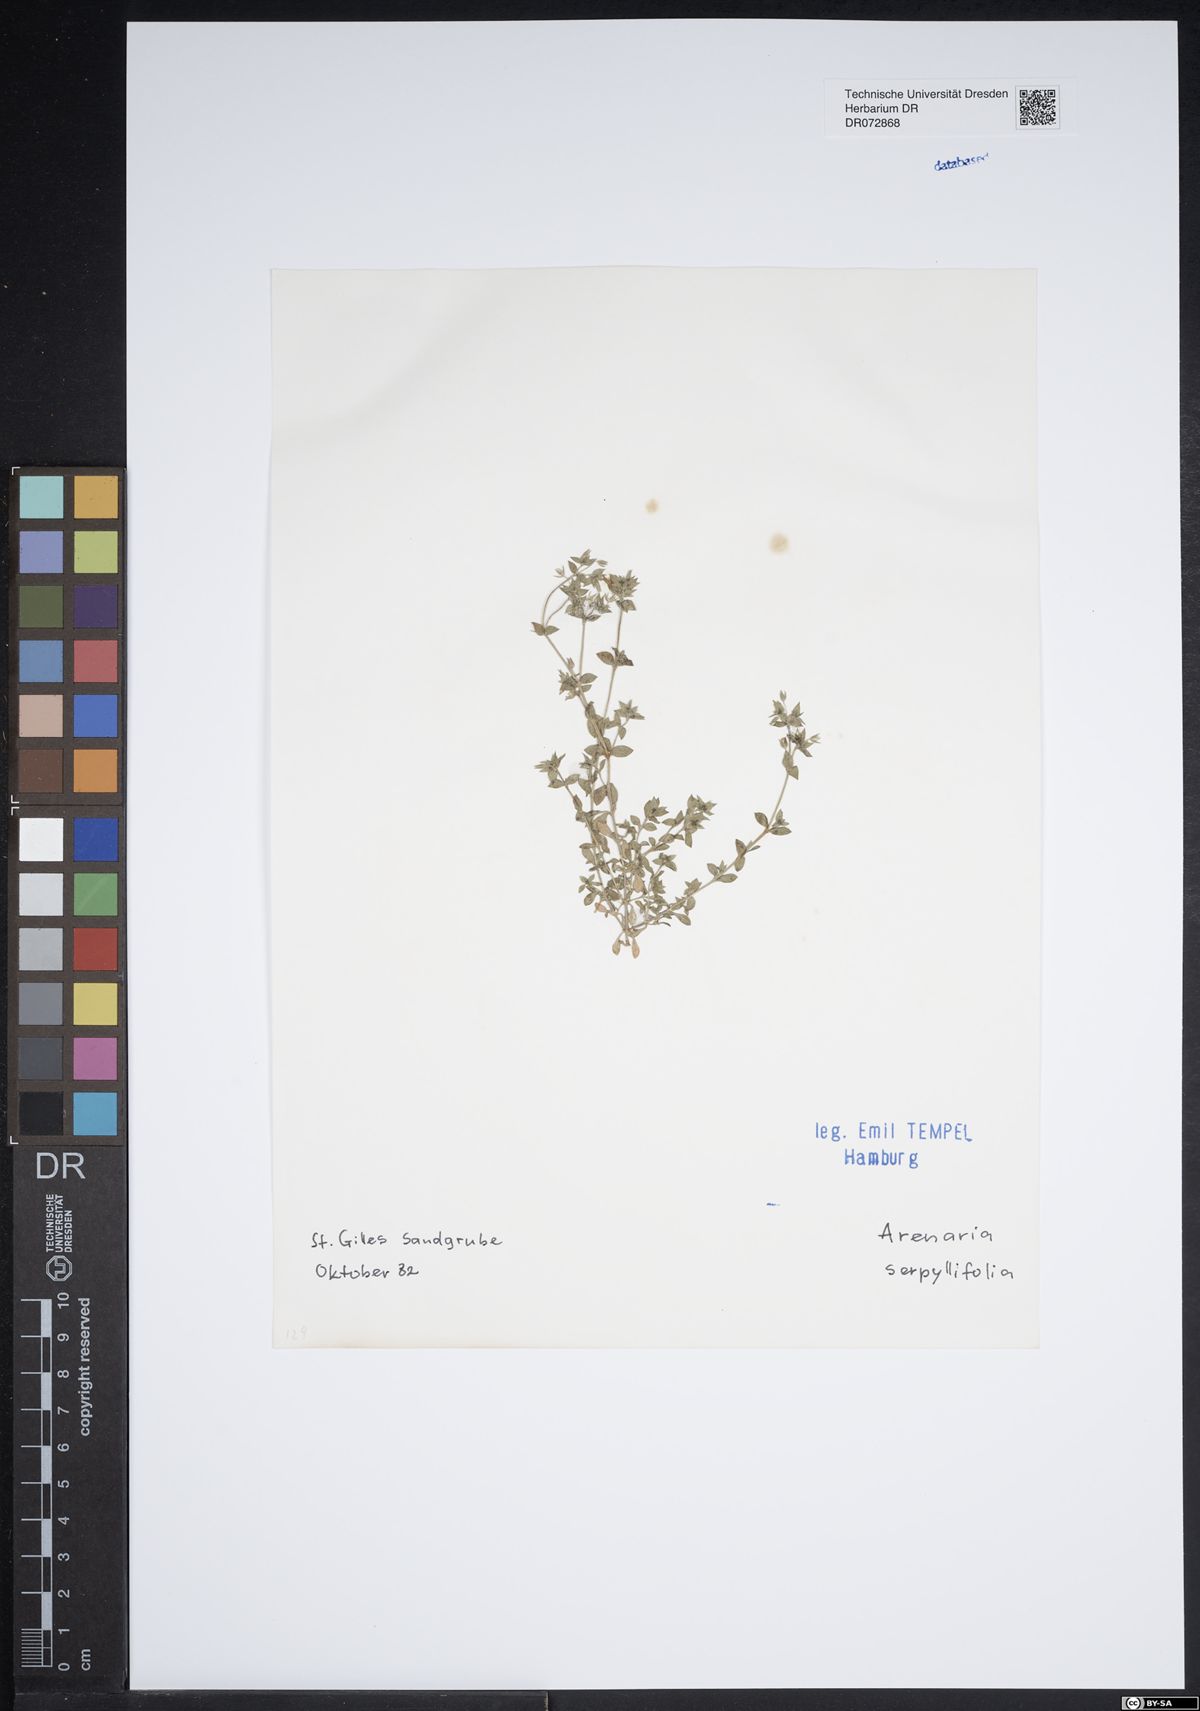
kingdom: Plantae
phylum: Tracheophyta
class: Magnoliopsida
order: Caryophyllales
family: Caryophyllaceae
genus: Arenaria
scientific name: Arenaria serpyllifolia
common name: Thyme-leaved sandwort
